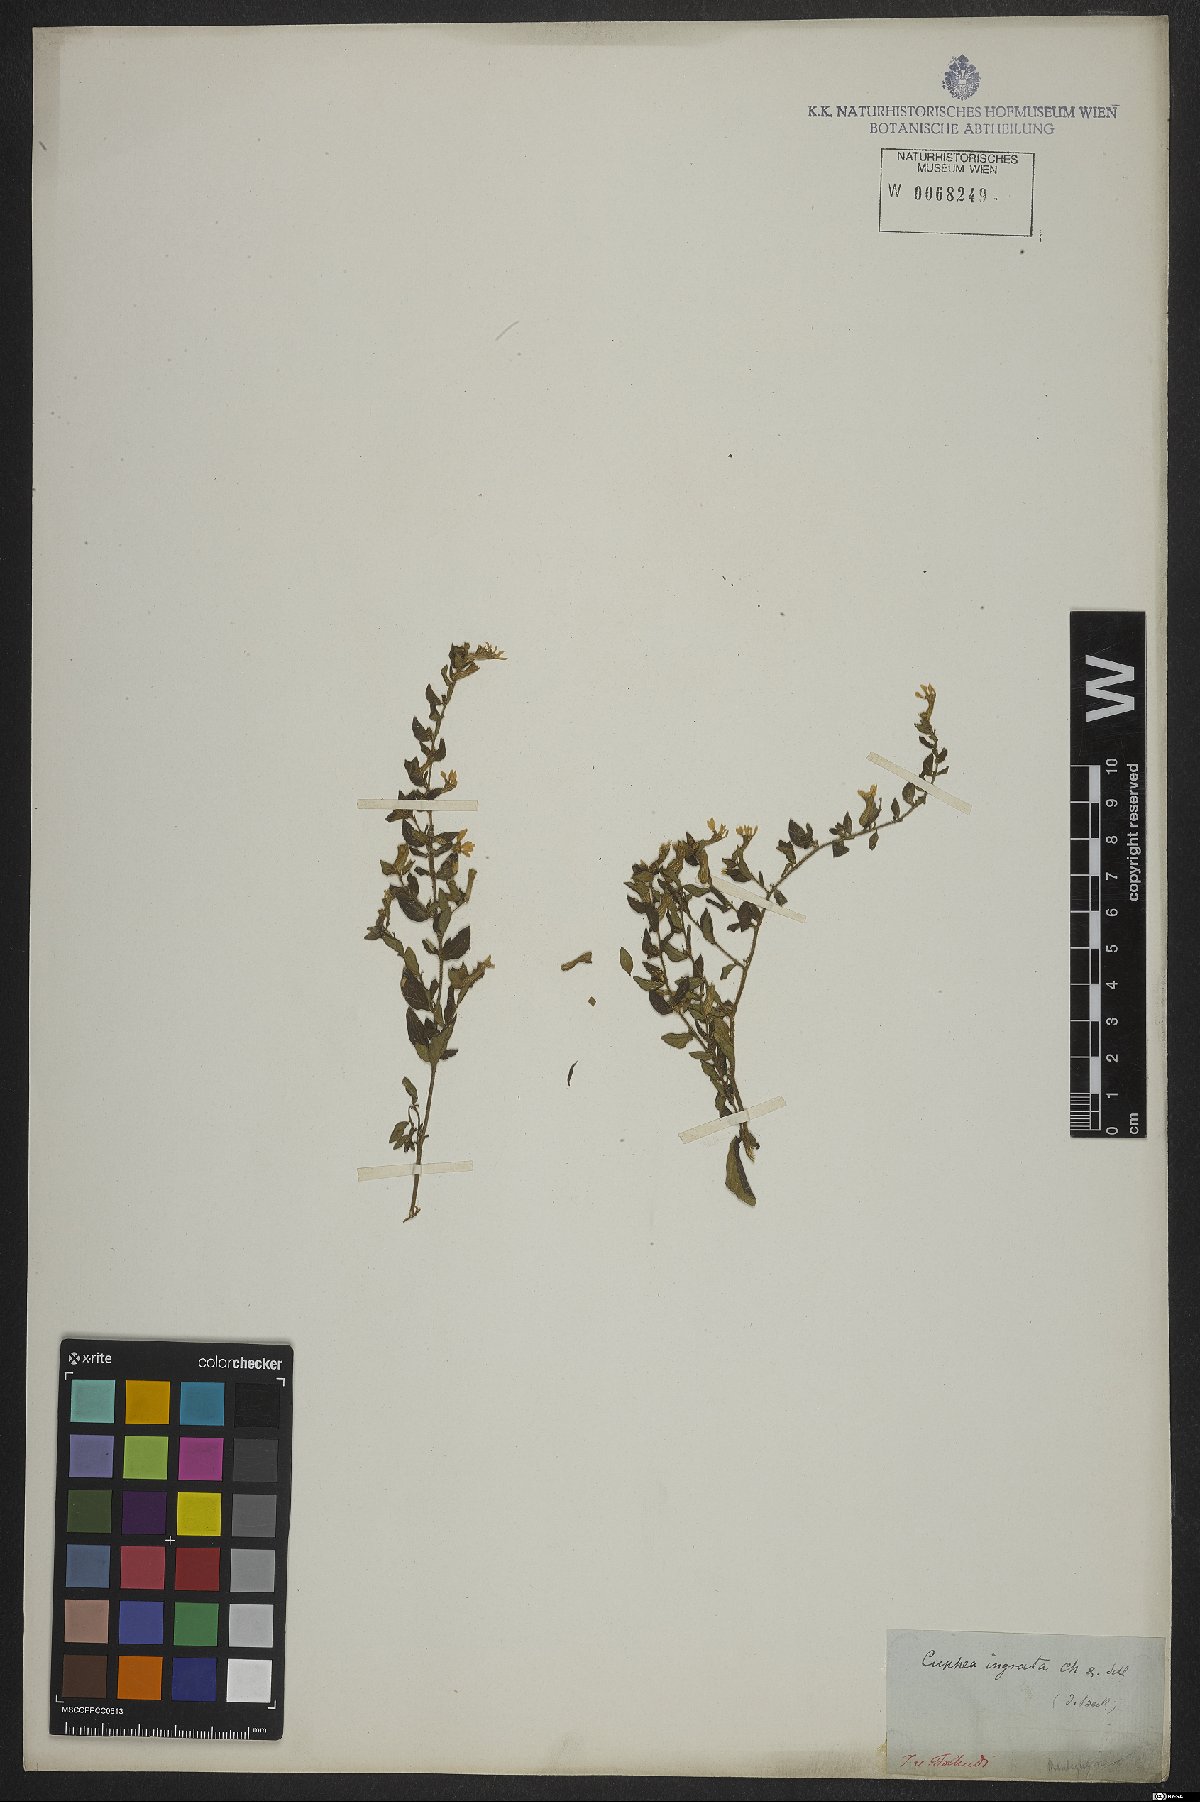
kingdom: Plantae
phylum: Tracheophyta
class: Magnoliopsida
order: Myrtales
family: Lythraceae
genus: Cuphea
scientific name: Cuphea sessiliflora
